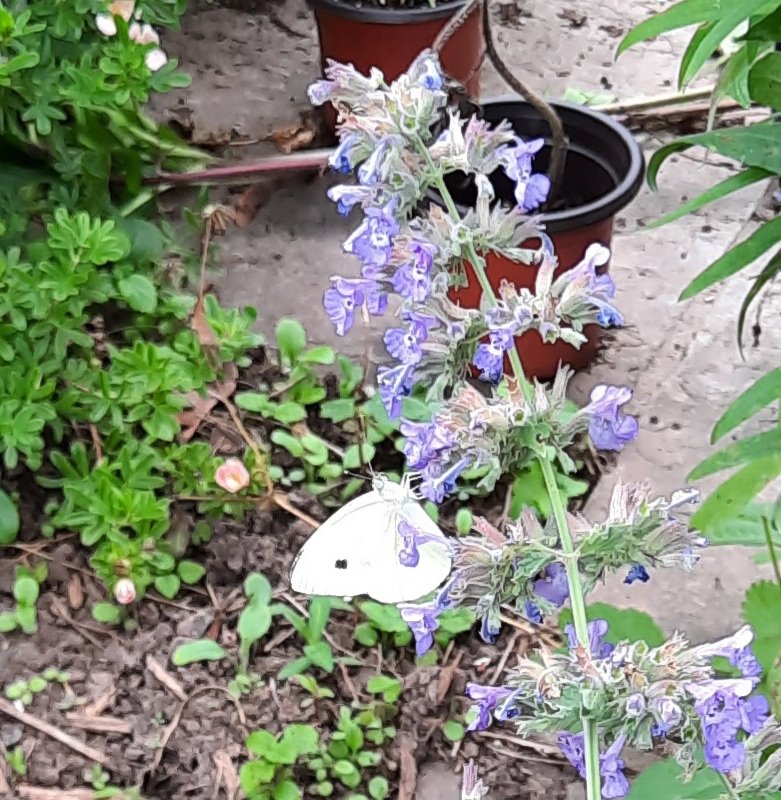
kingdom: Animalia
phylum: Arthropoda
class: Insecta
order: Lepidoptera
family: Pieridae
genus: Pieris
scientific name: Pieris rapae
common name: Cabbage White
